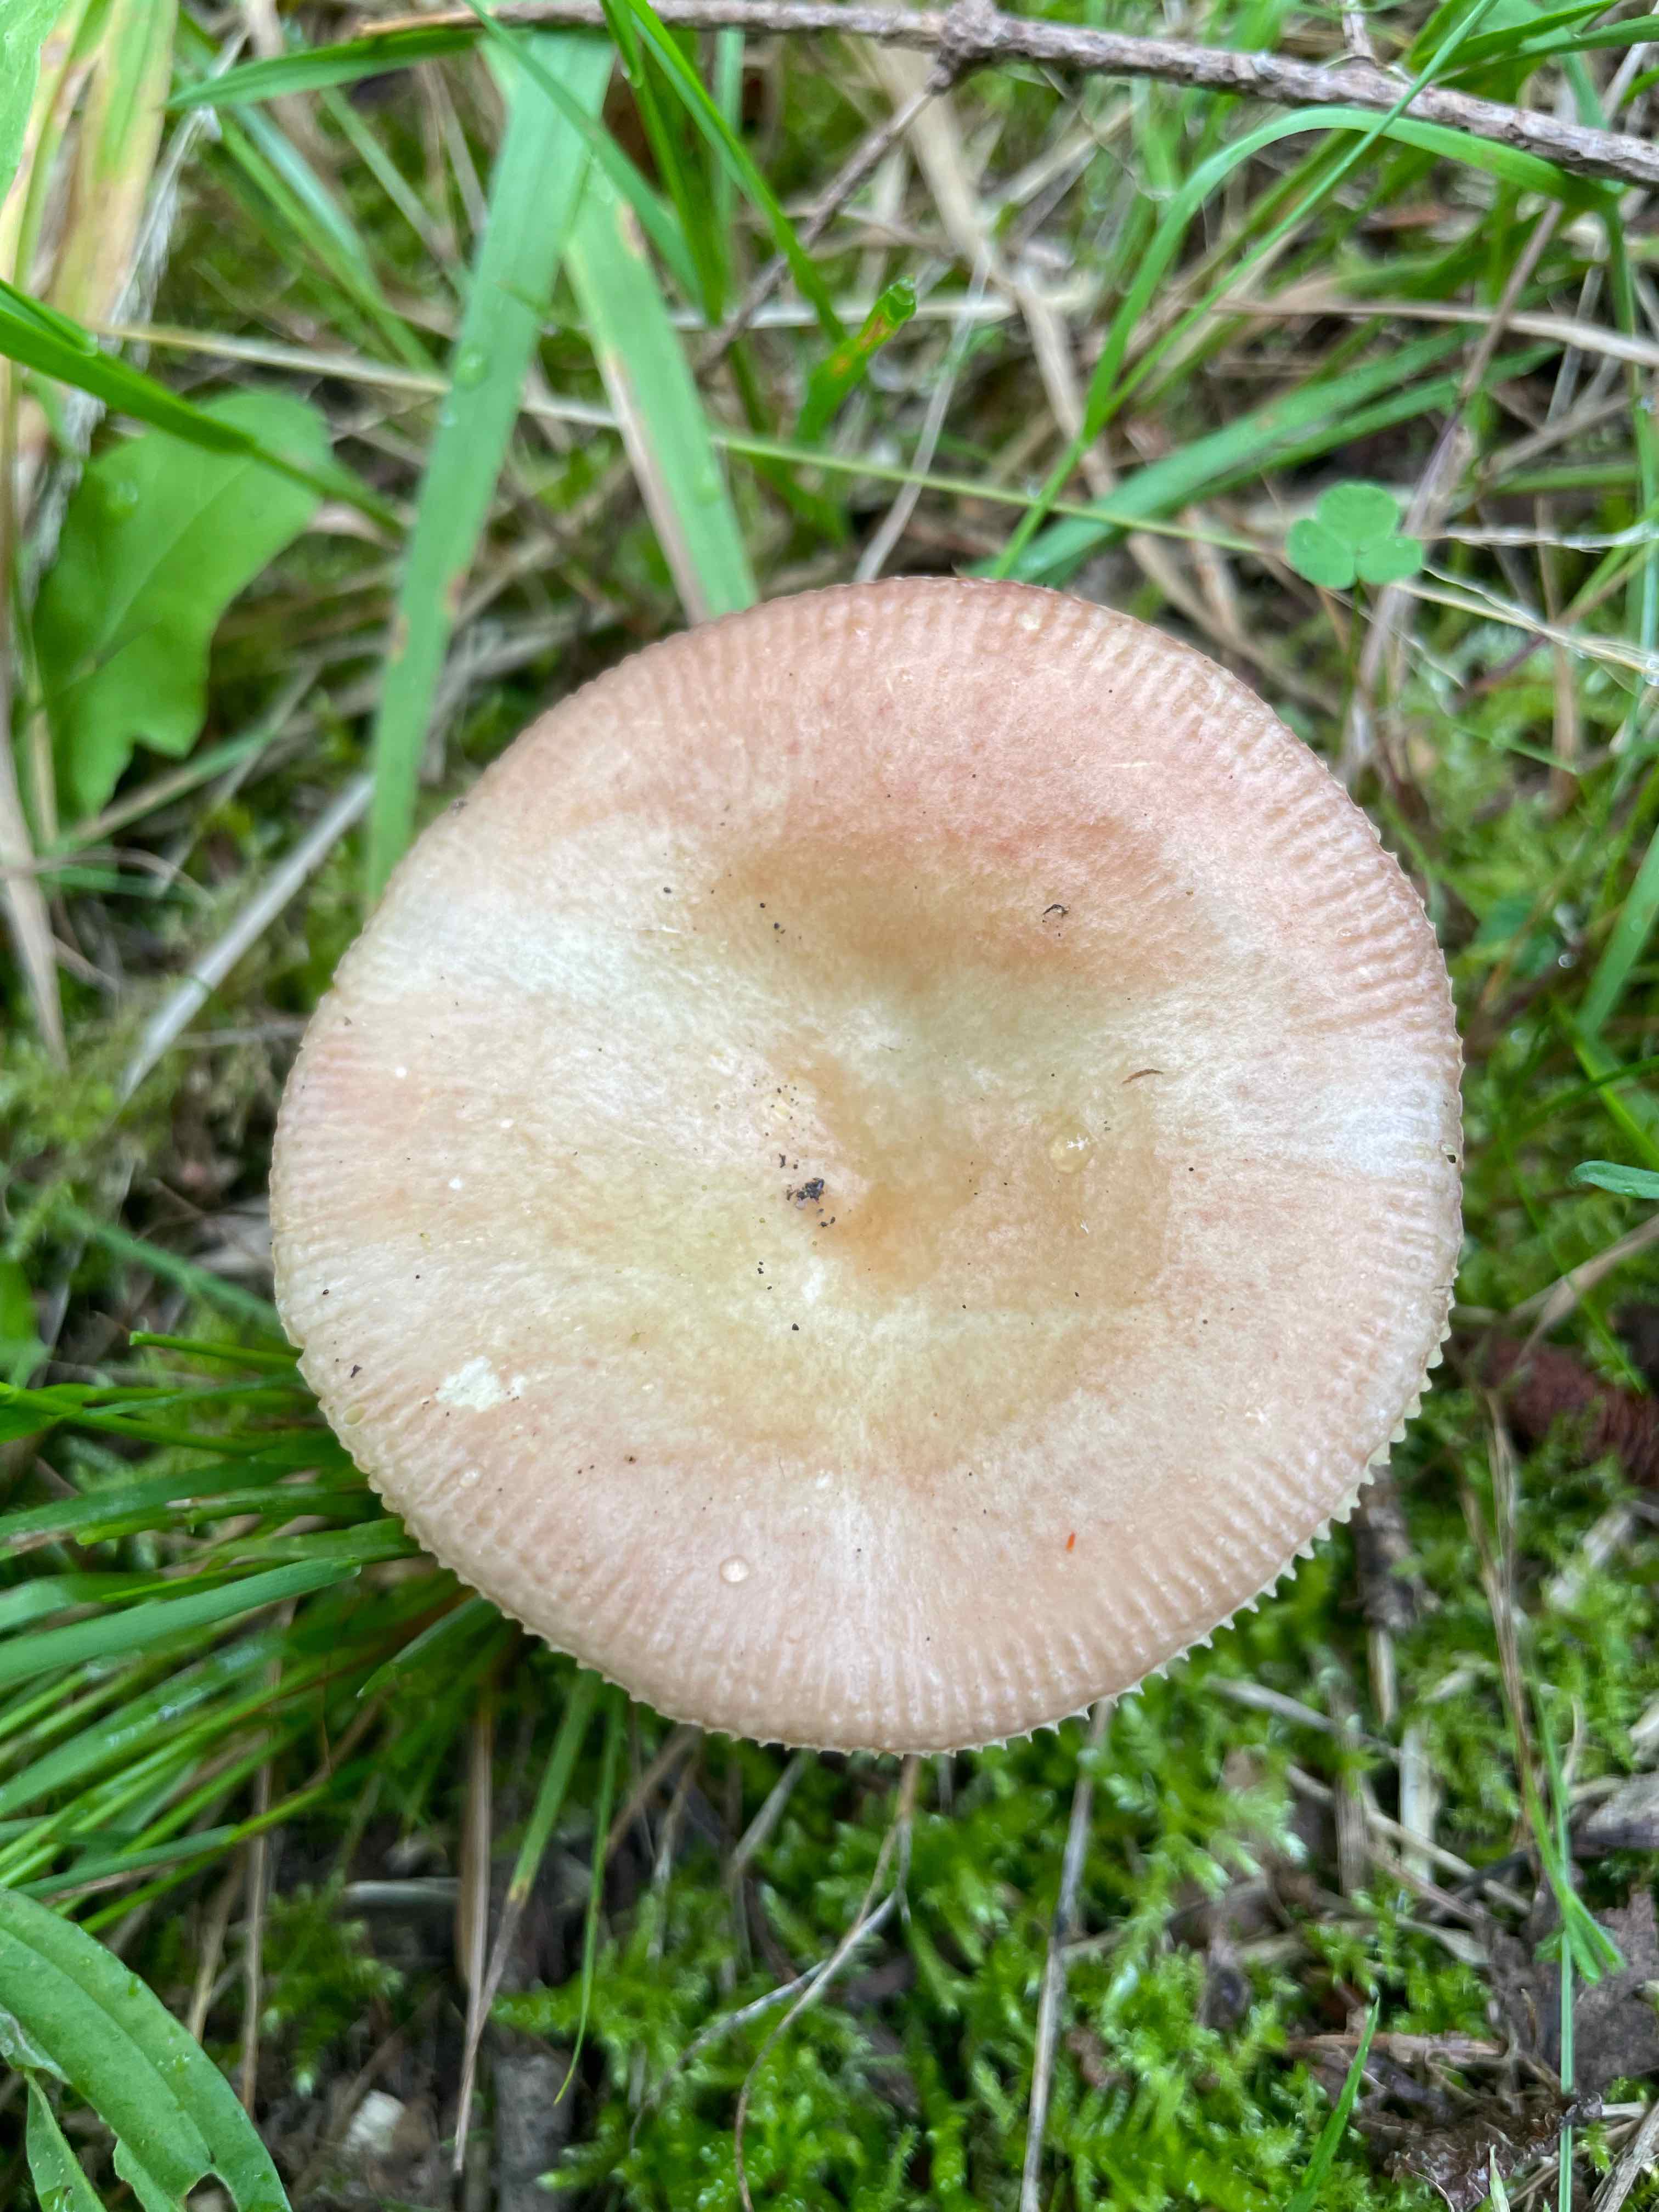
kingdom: Fungi
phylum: Basidiomycota
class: Agaricomycetes
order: Russulales
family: Russulaceae
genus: Russula
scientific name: Russula
